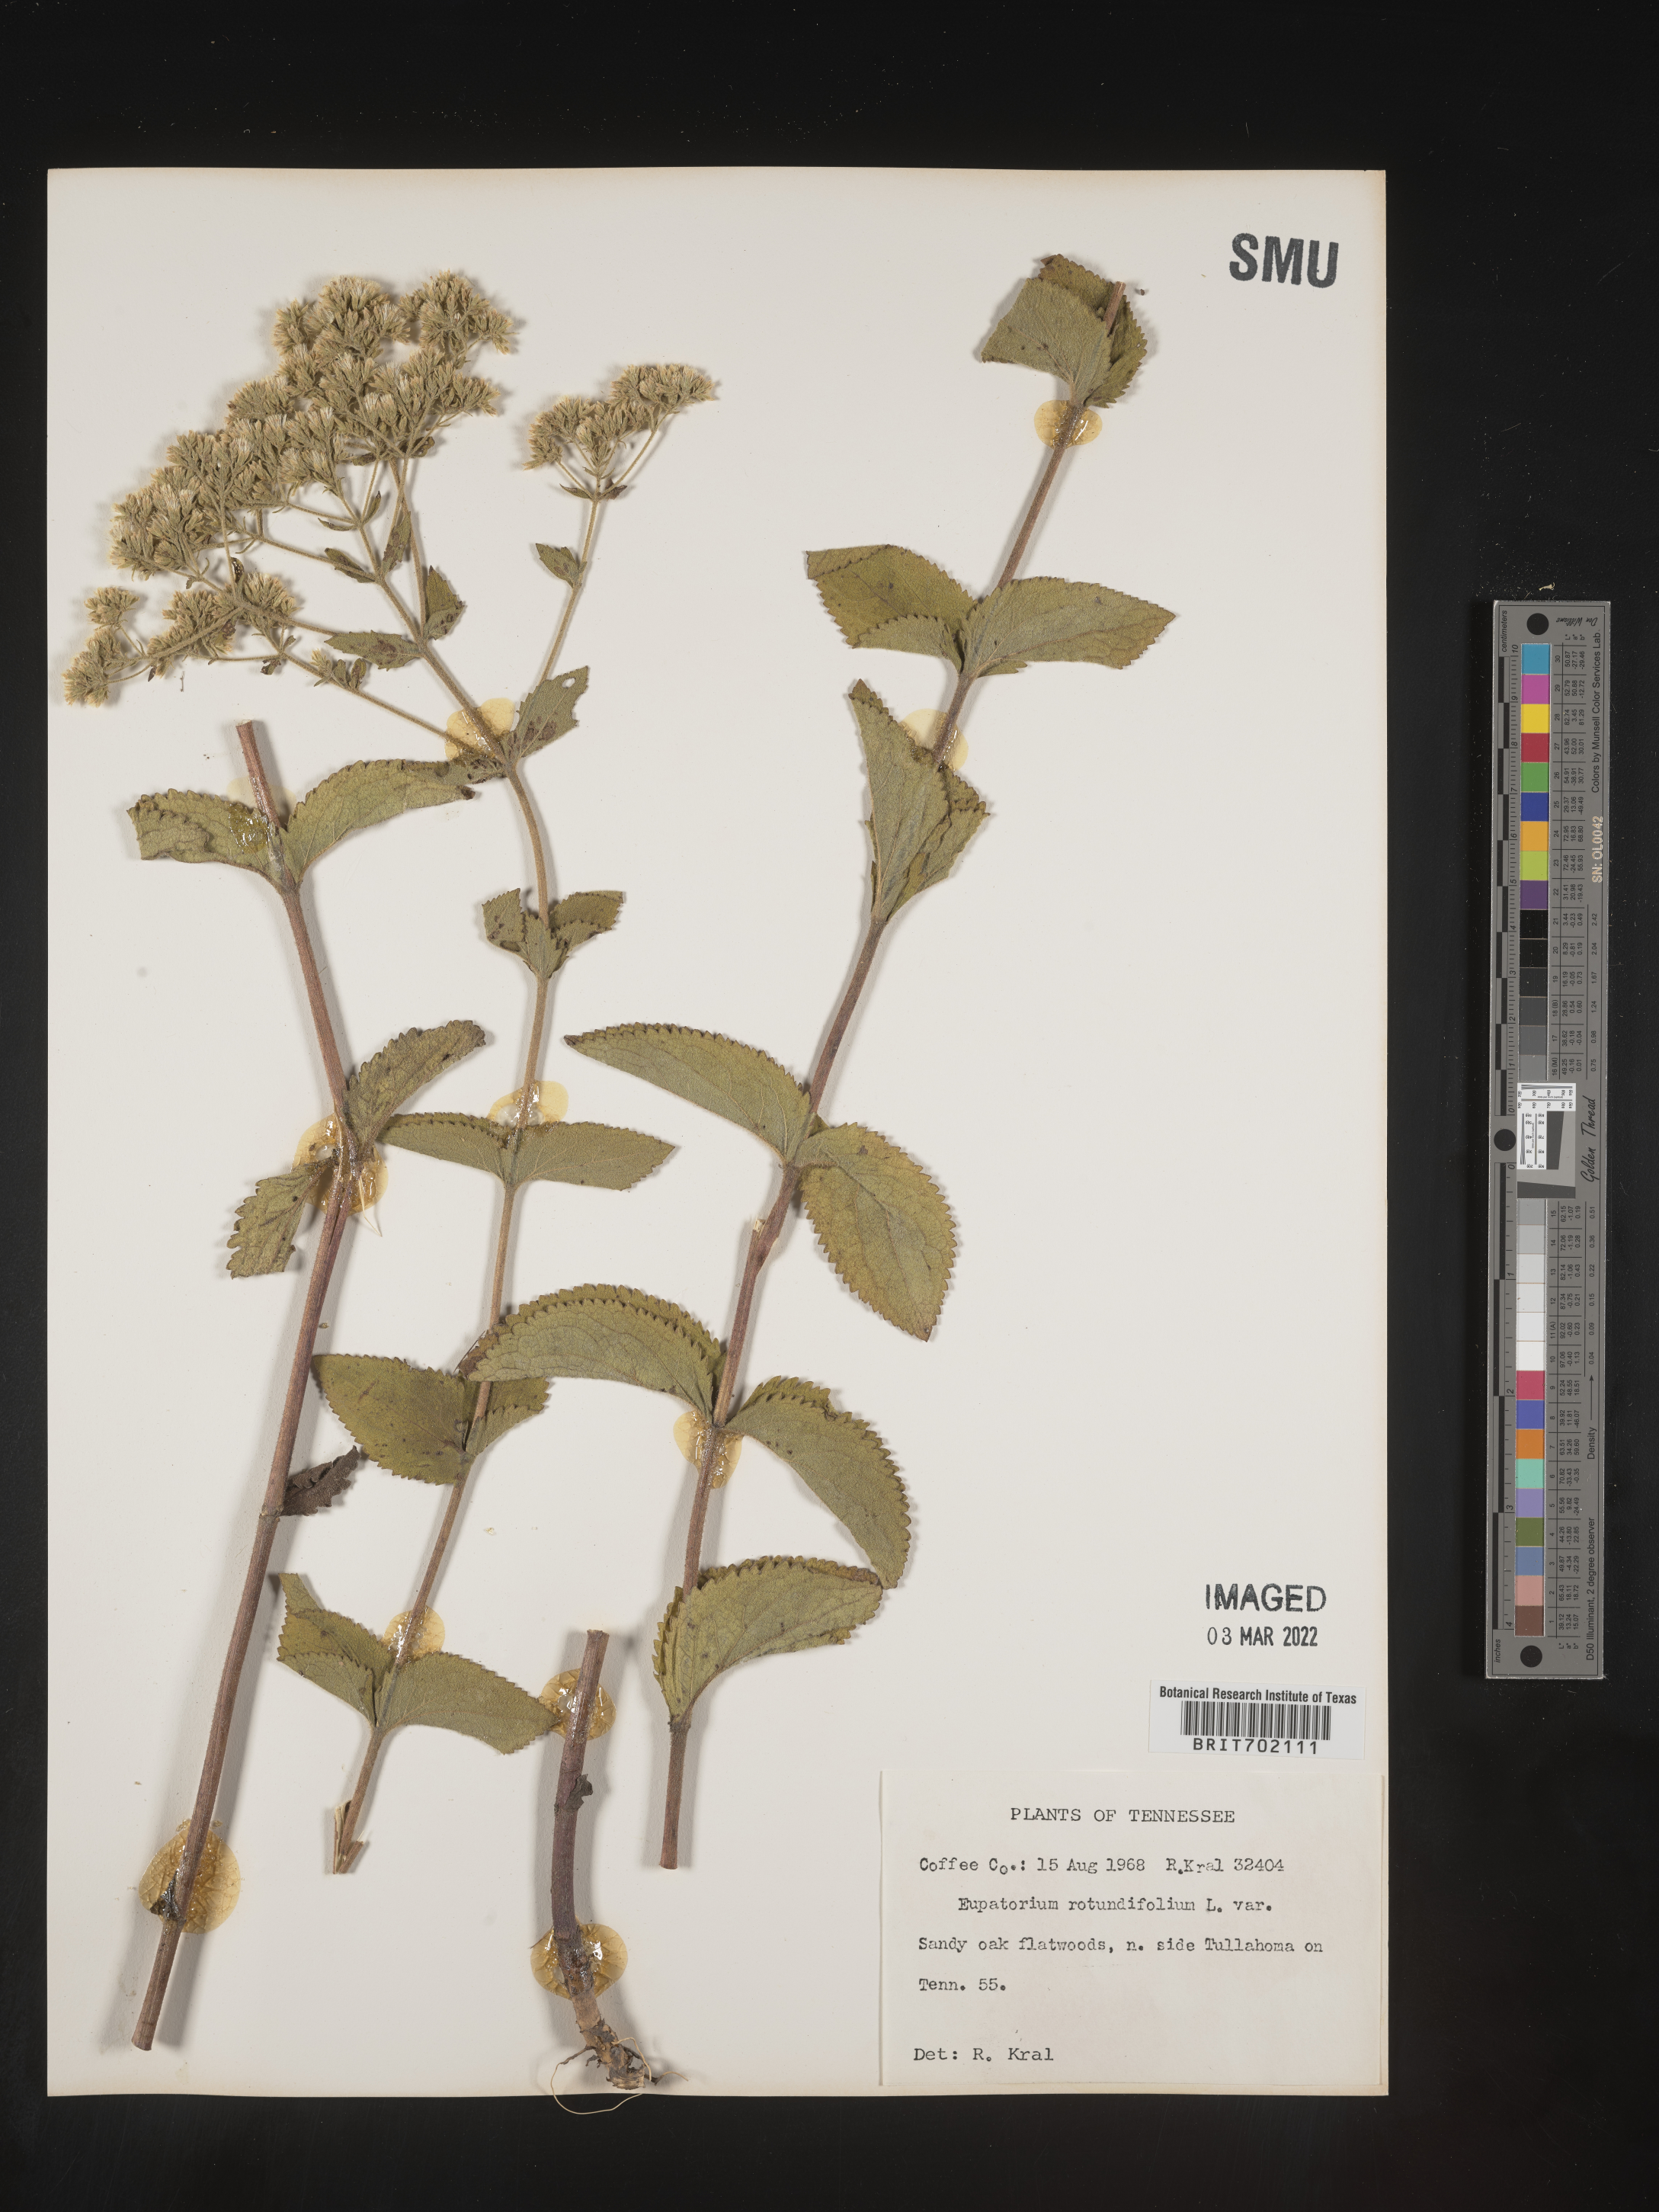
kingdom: Plantae
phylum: Tracheophyta
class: Magnoliopsida
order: Asterales
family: Asteraceae
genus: Eupatorium
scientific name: Eupatorium rotundifolium
